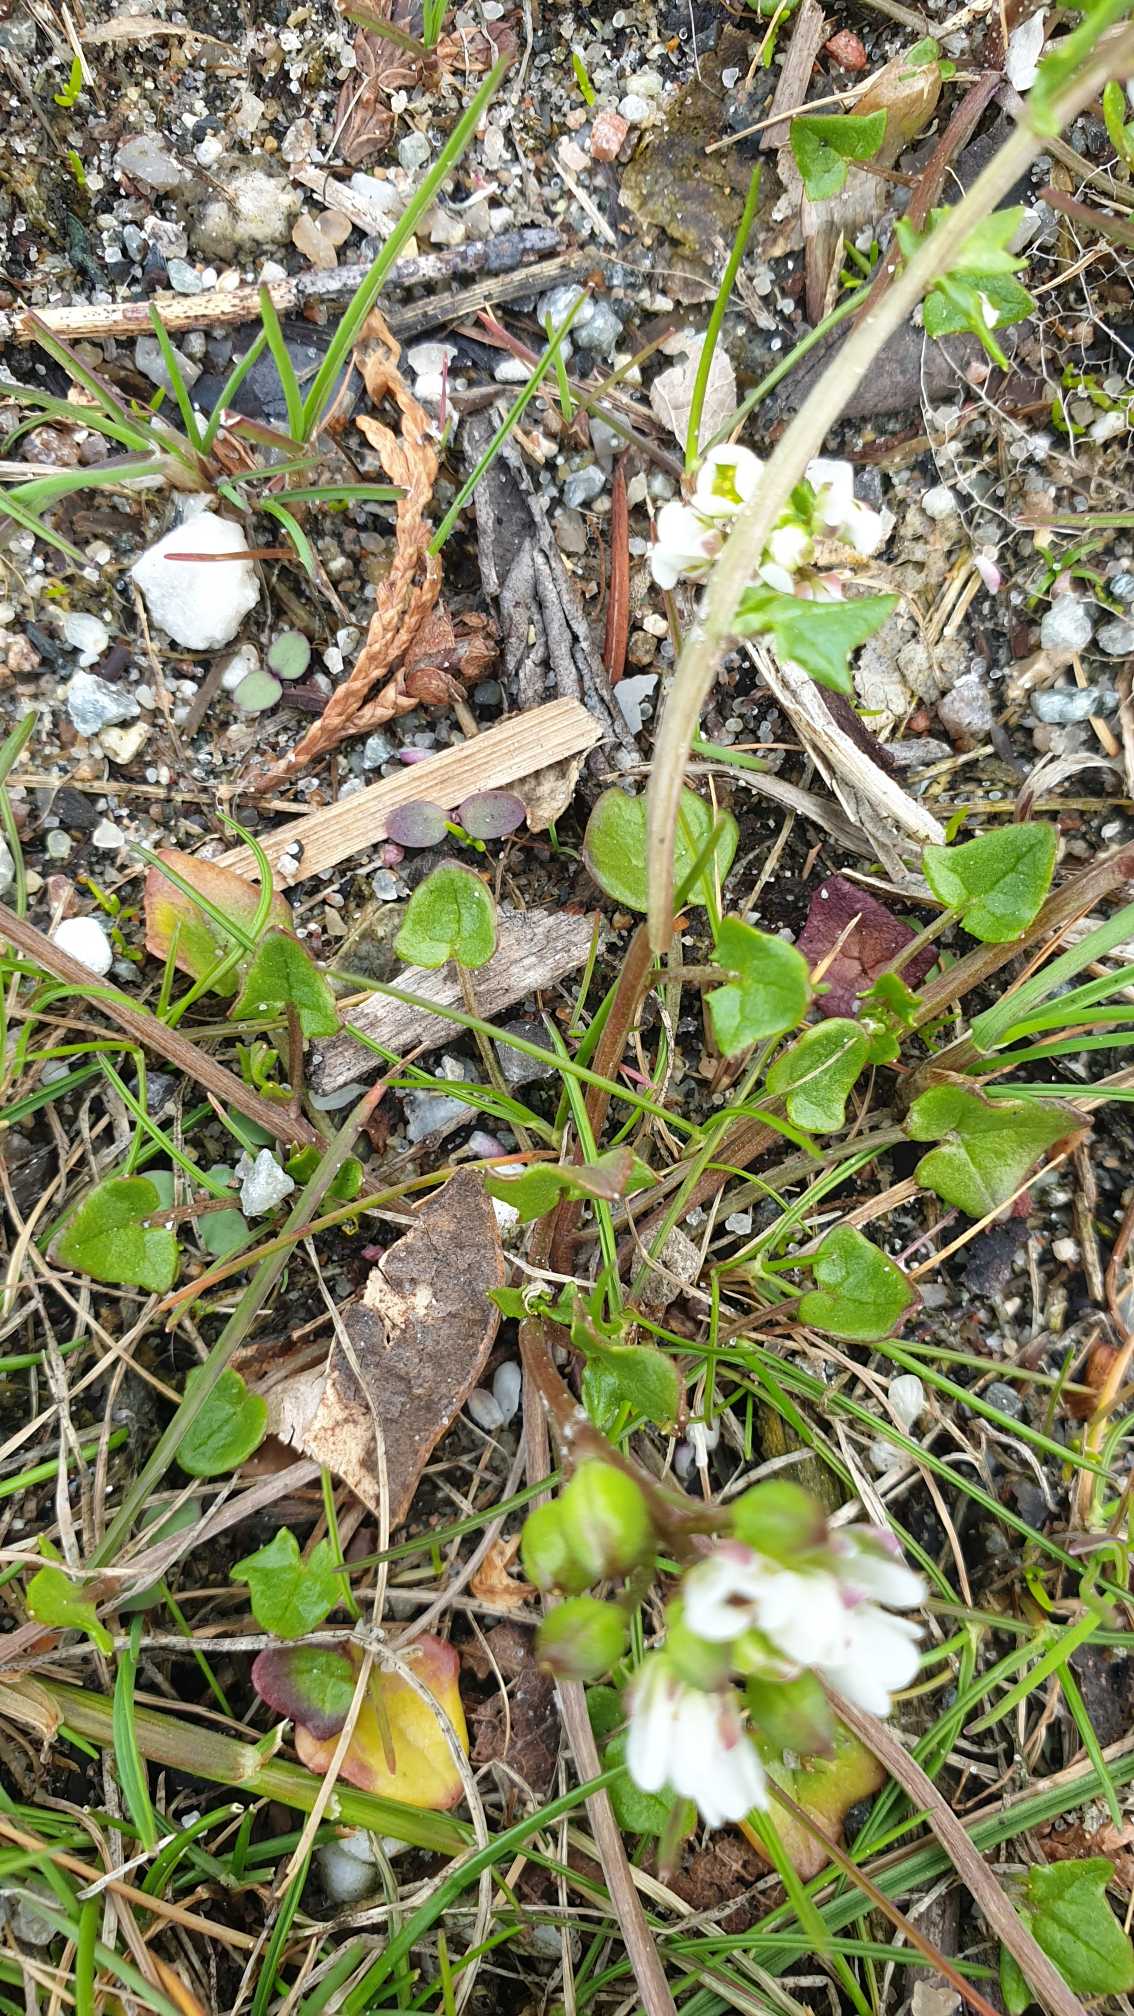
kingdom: Plantae
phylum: Tracheophyta
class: Magnoliopsida
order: Brassicales
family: Brassicaceae
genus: Cochlearia
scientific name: Cochlearia danica
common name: Dansk kokleare
